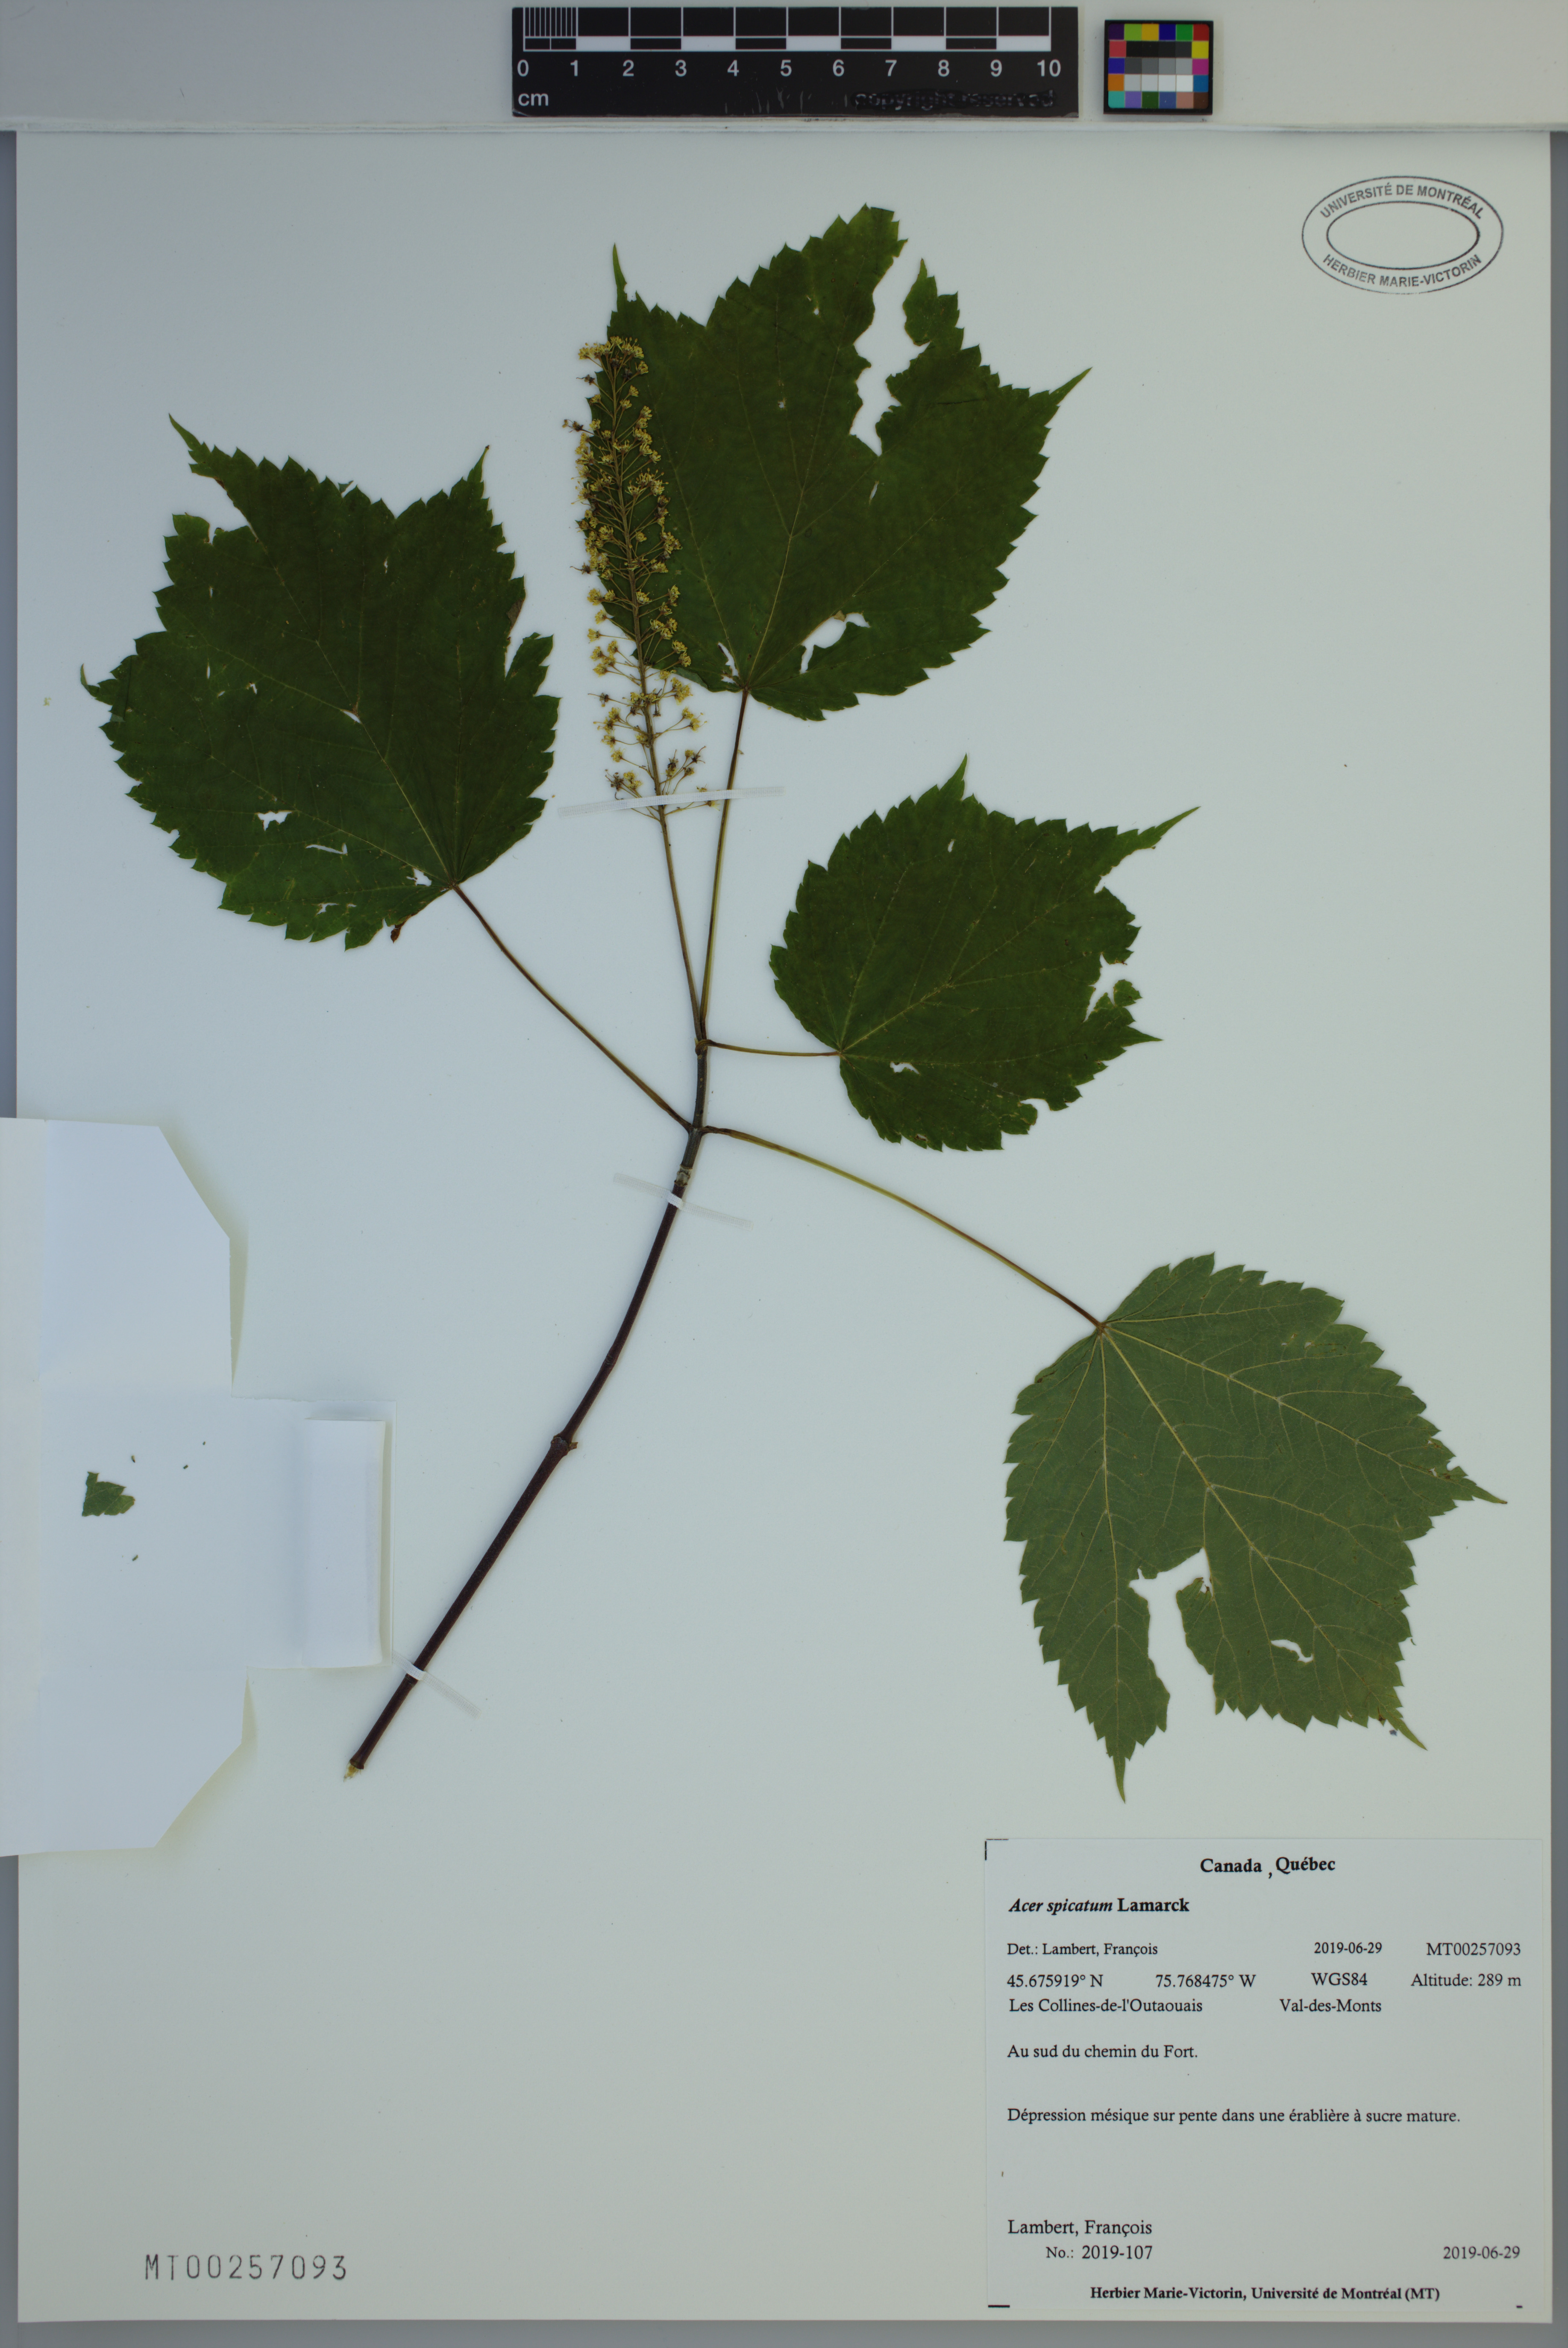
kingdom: Plantae
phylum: Tracheophyta
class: Magnoliopsida
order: Sapindales
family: Sapindaceae
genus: Acer
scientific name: Acer spicatum
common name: Mountain maple
